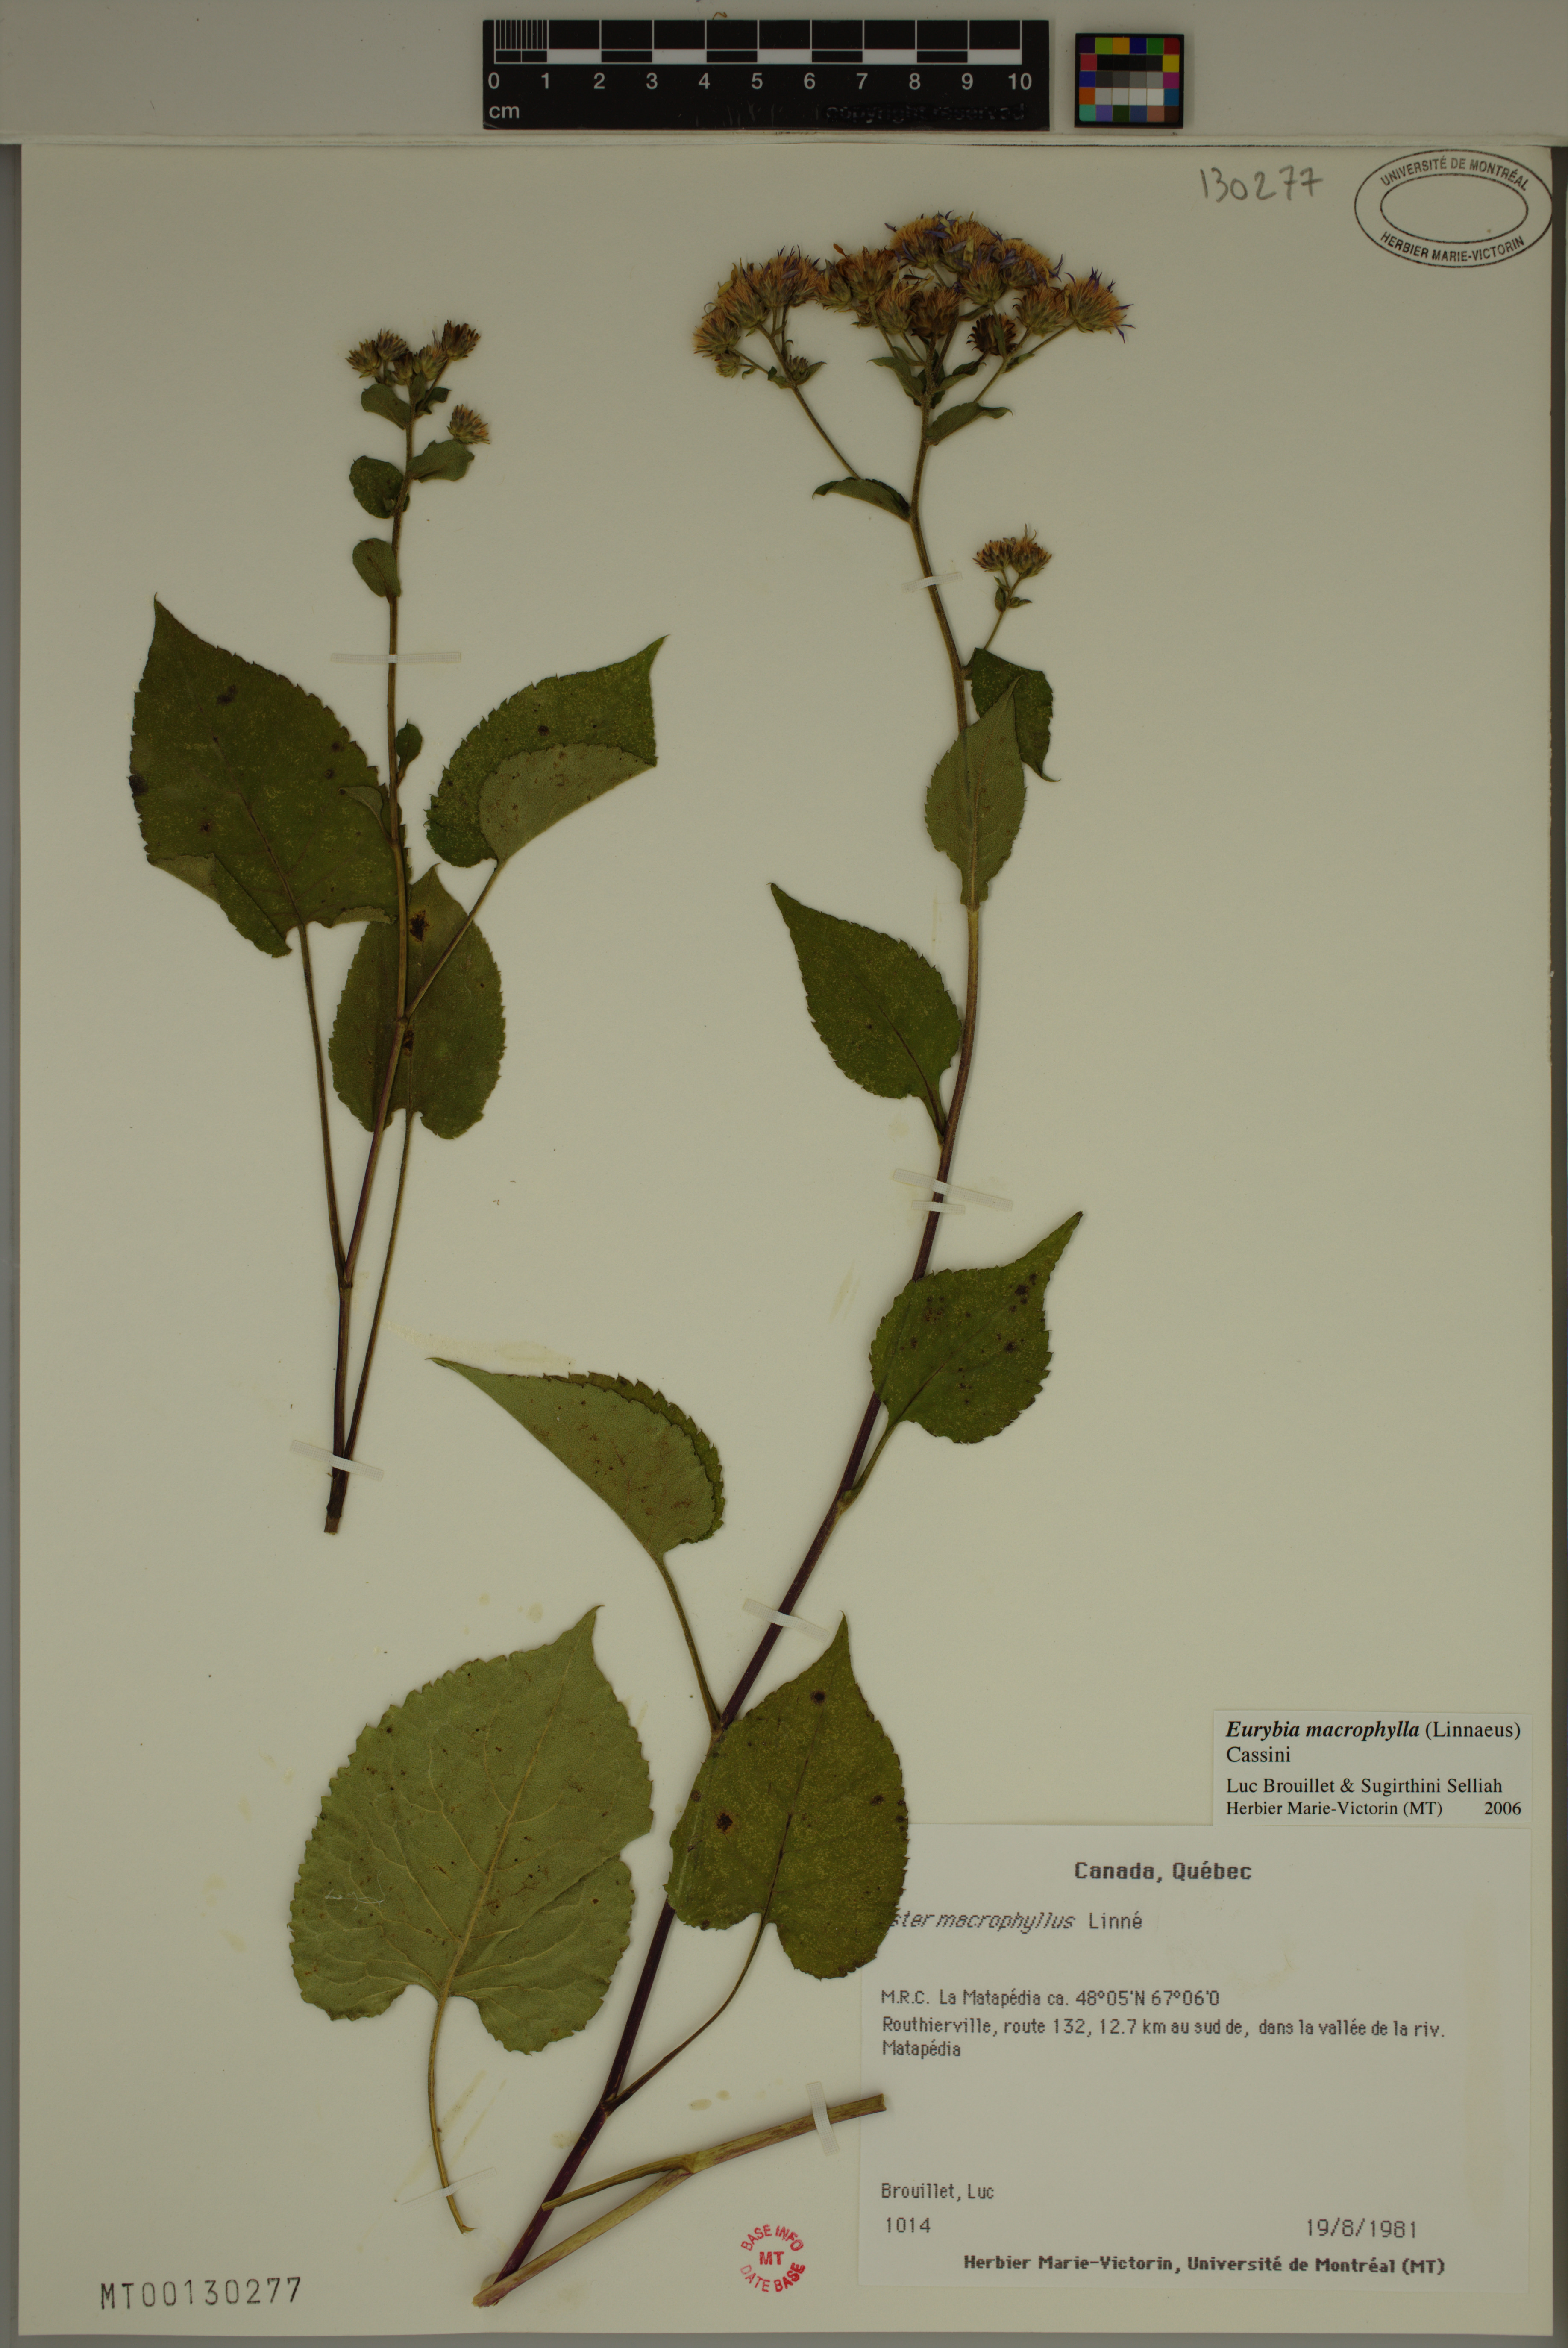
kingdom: Plantae
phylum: Tracheophyta
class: Magnoliopsida
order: Asterales
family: Asteraceae
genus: Eurybia
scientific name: Eurybia macrophylla
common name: Big-leaved aster
